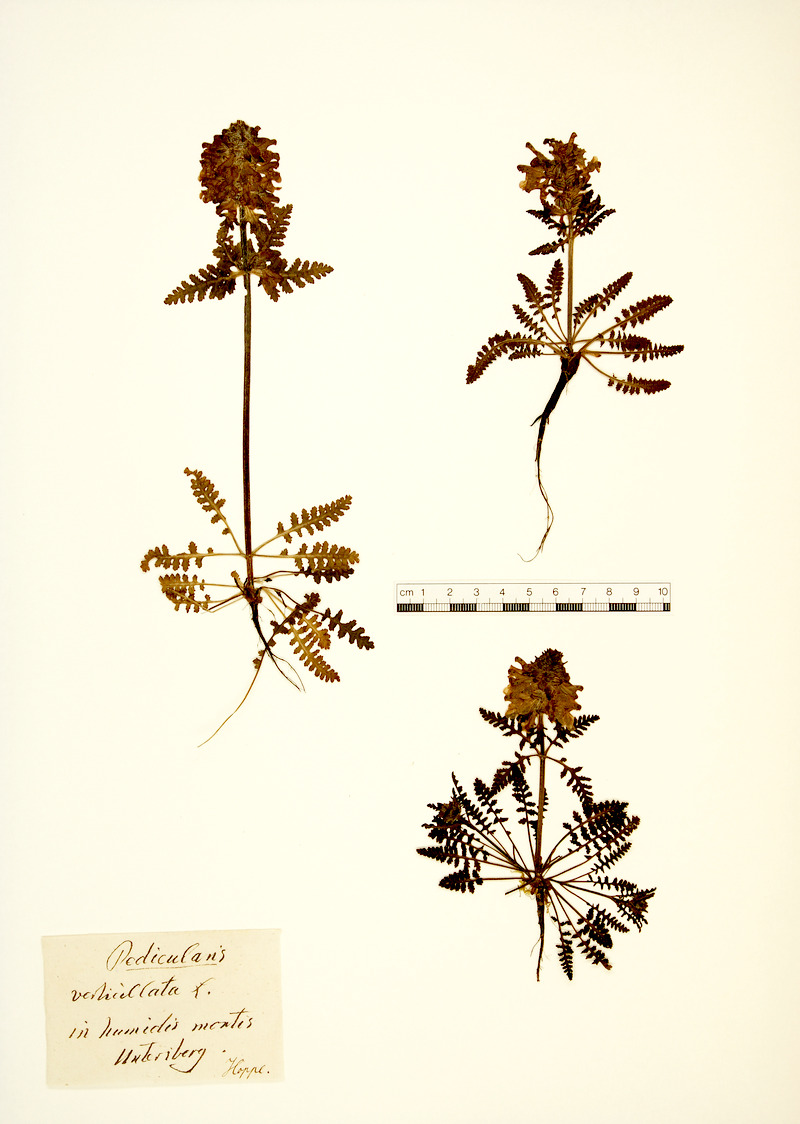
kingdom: Plantae
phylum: Tracheophyta
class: Magnoliopsida
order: Lamiales
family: Orobanchaceae
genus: Pedicularis
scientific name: Pedicularis verticillata
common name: Whorled lousewort
